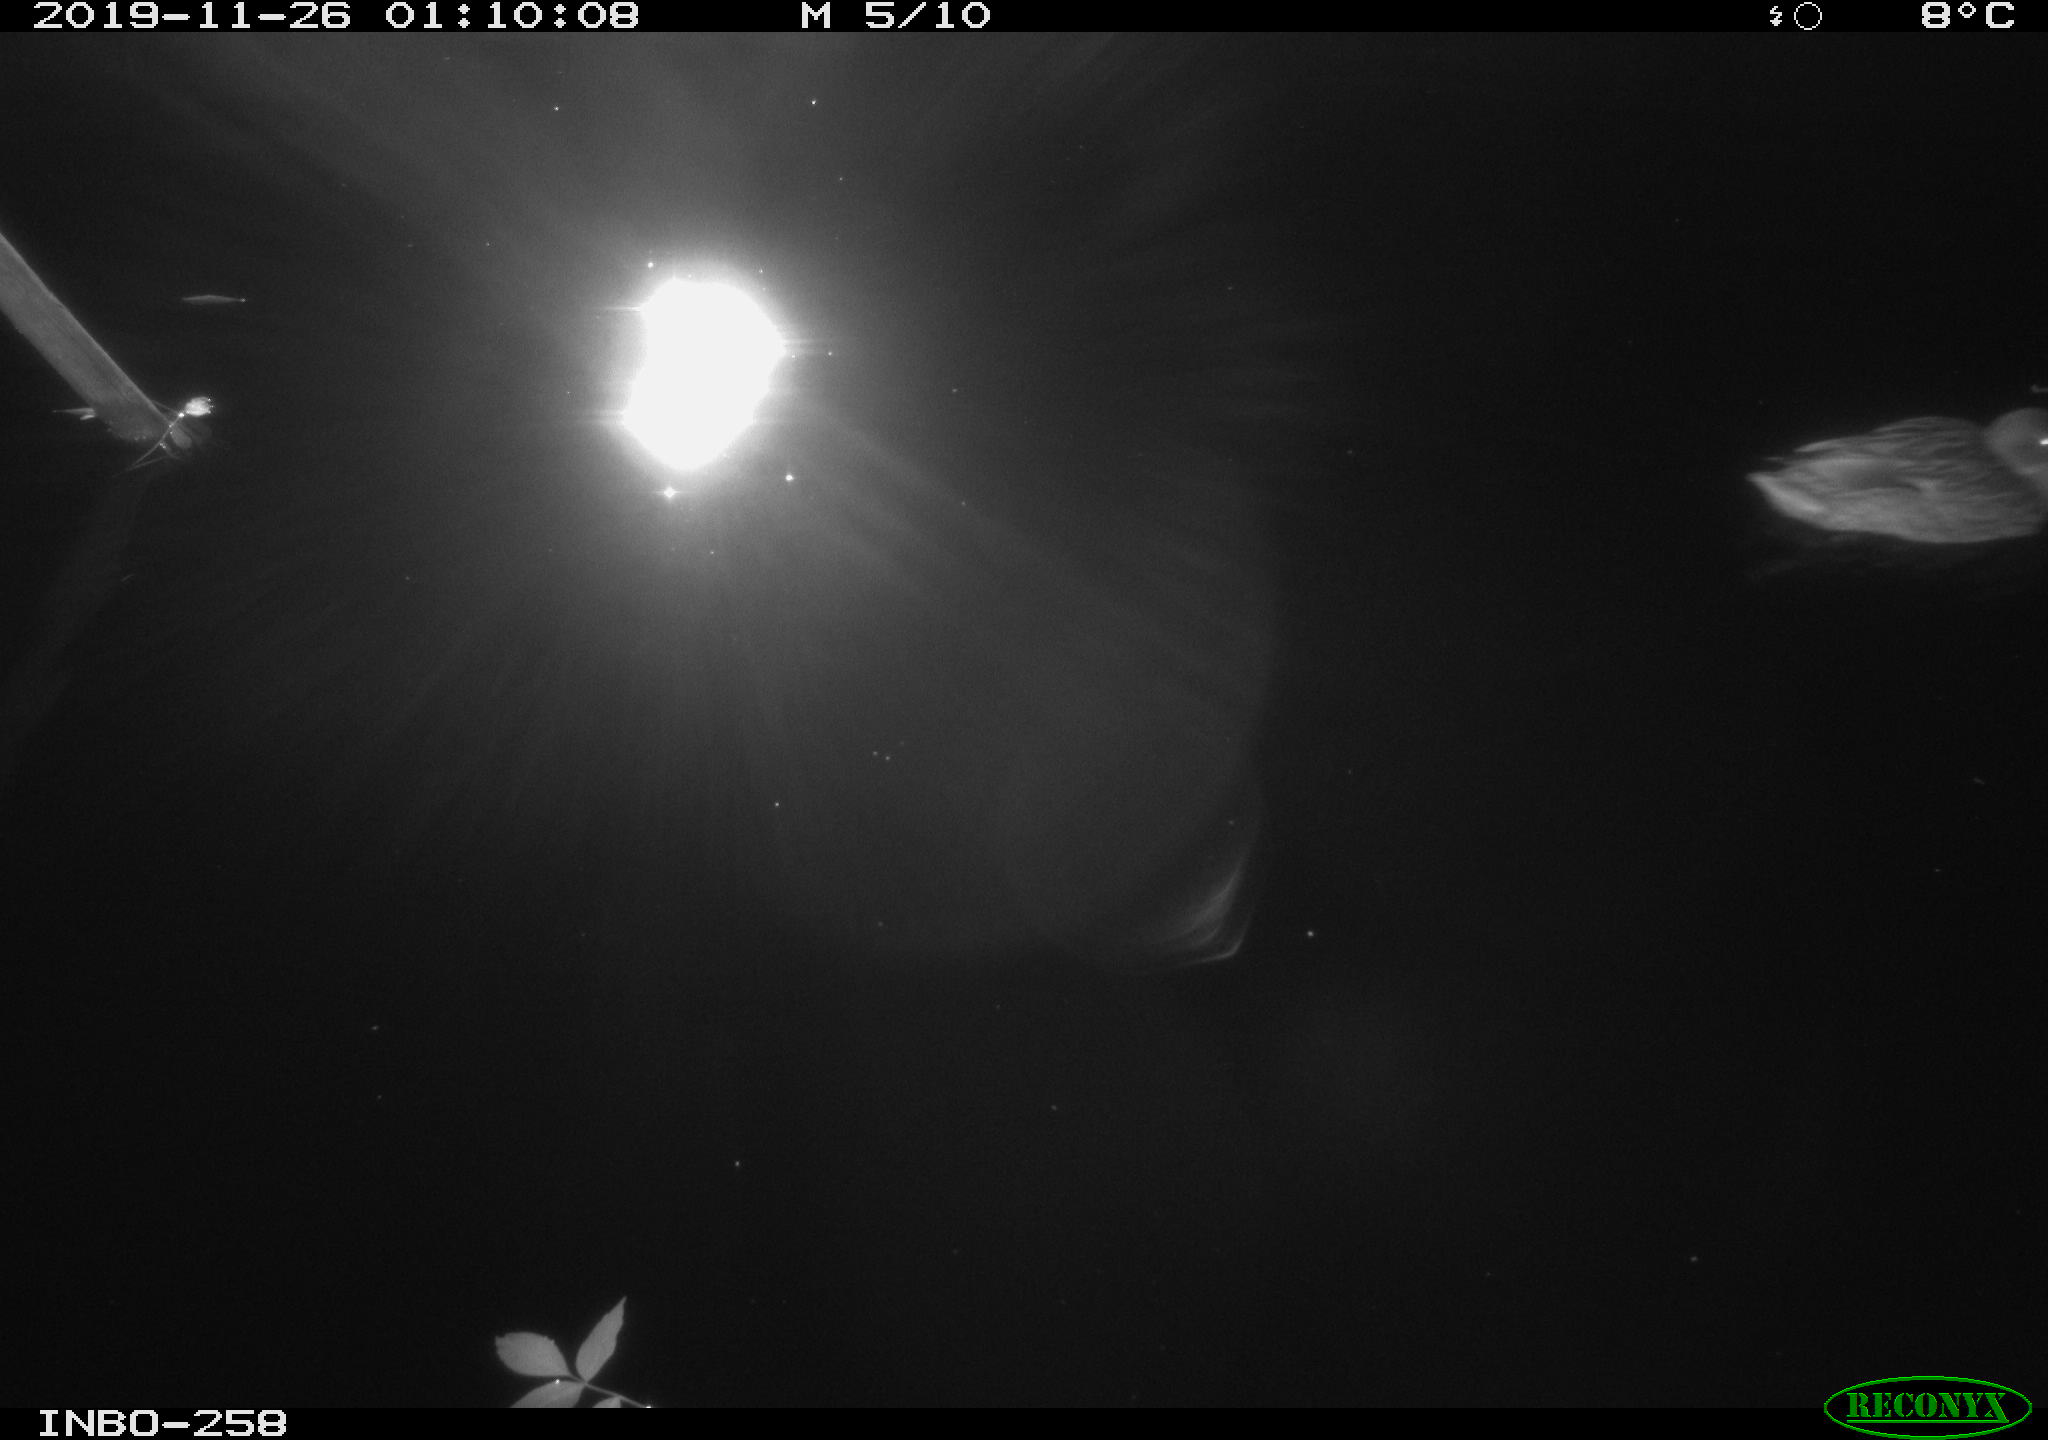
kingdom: Animalia
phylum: Chordata
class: Aves
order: Anseriformes
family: Anatidae
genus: Anas
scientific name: Anas platyrhynchos
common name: Mallard
